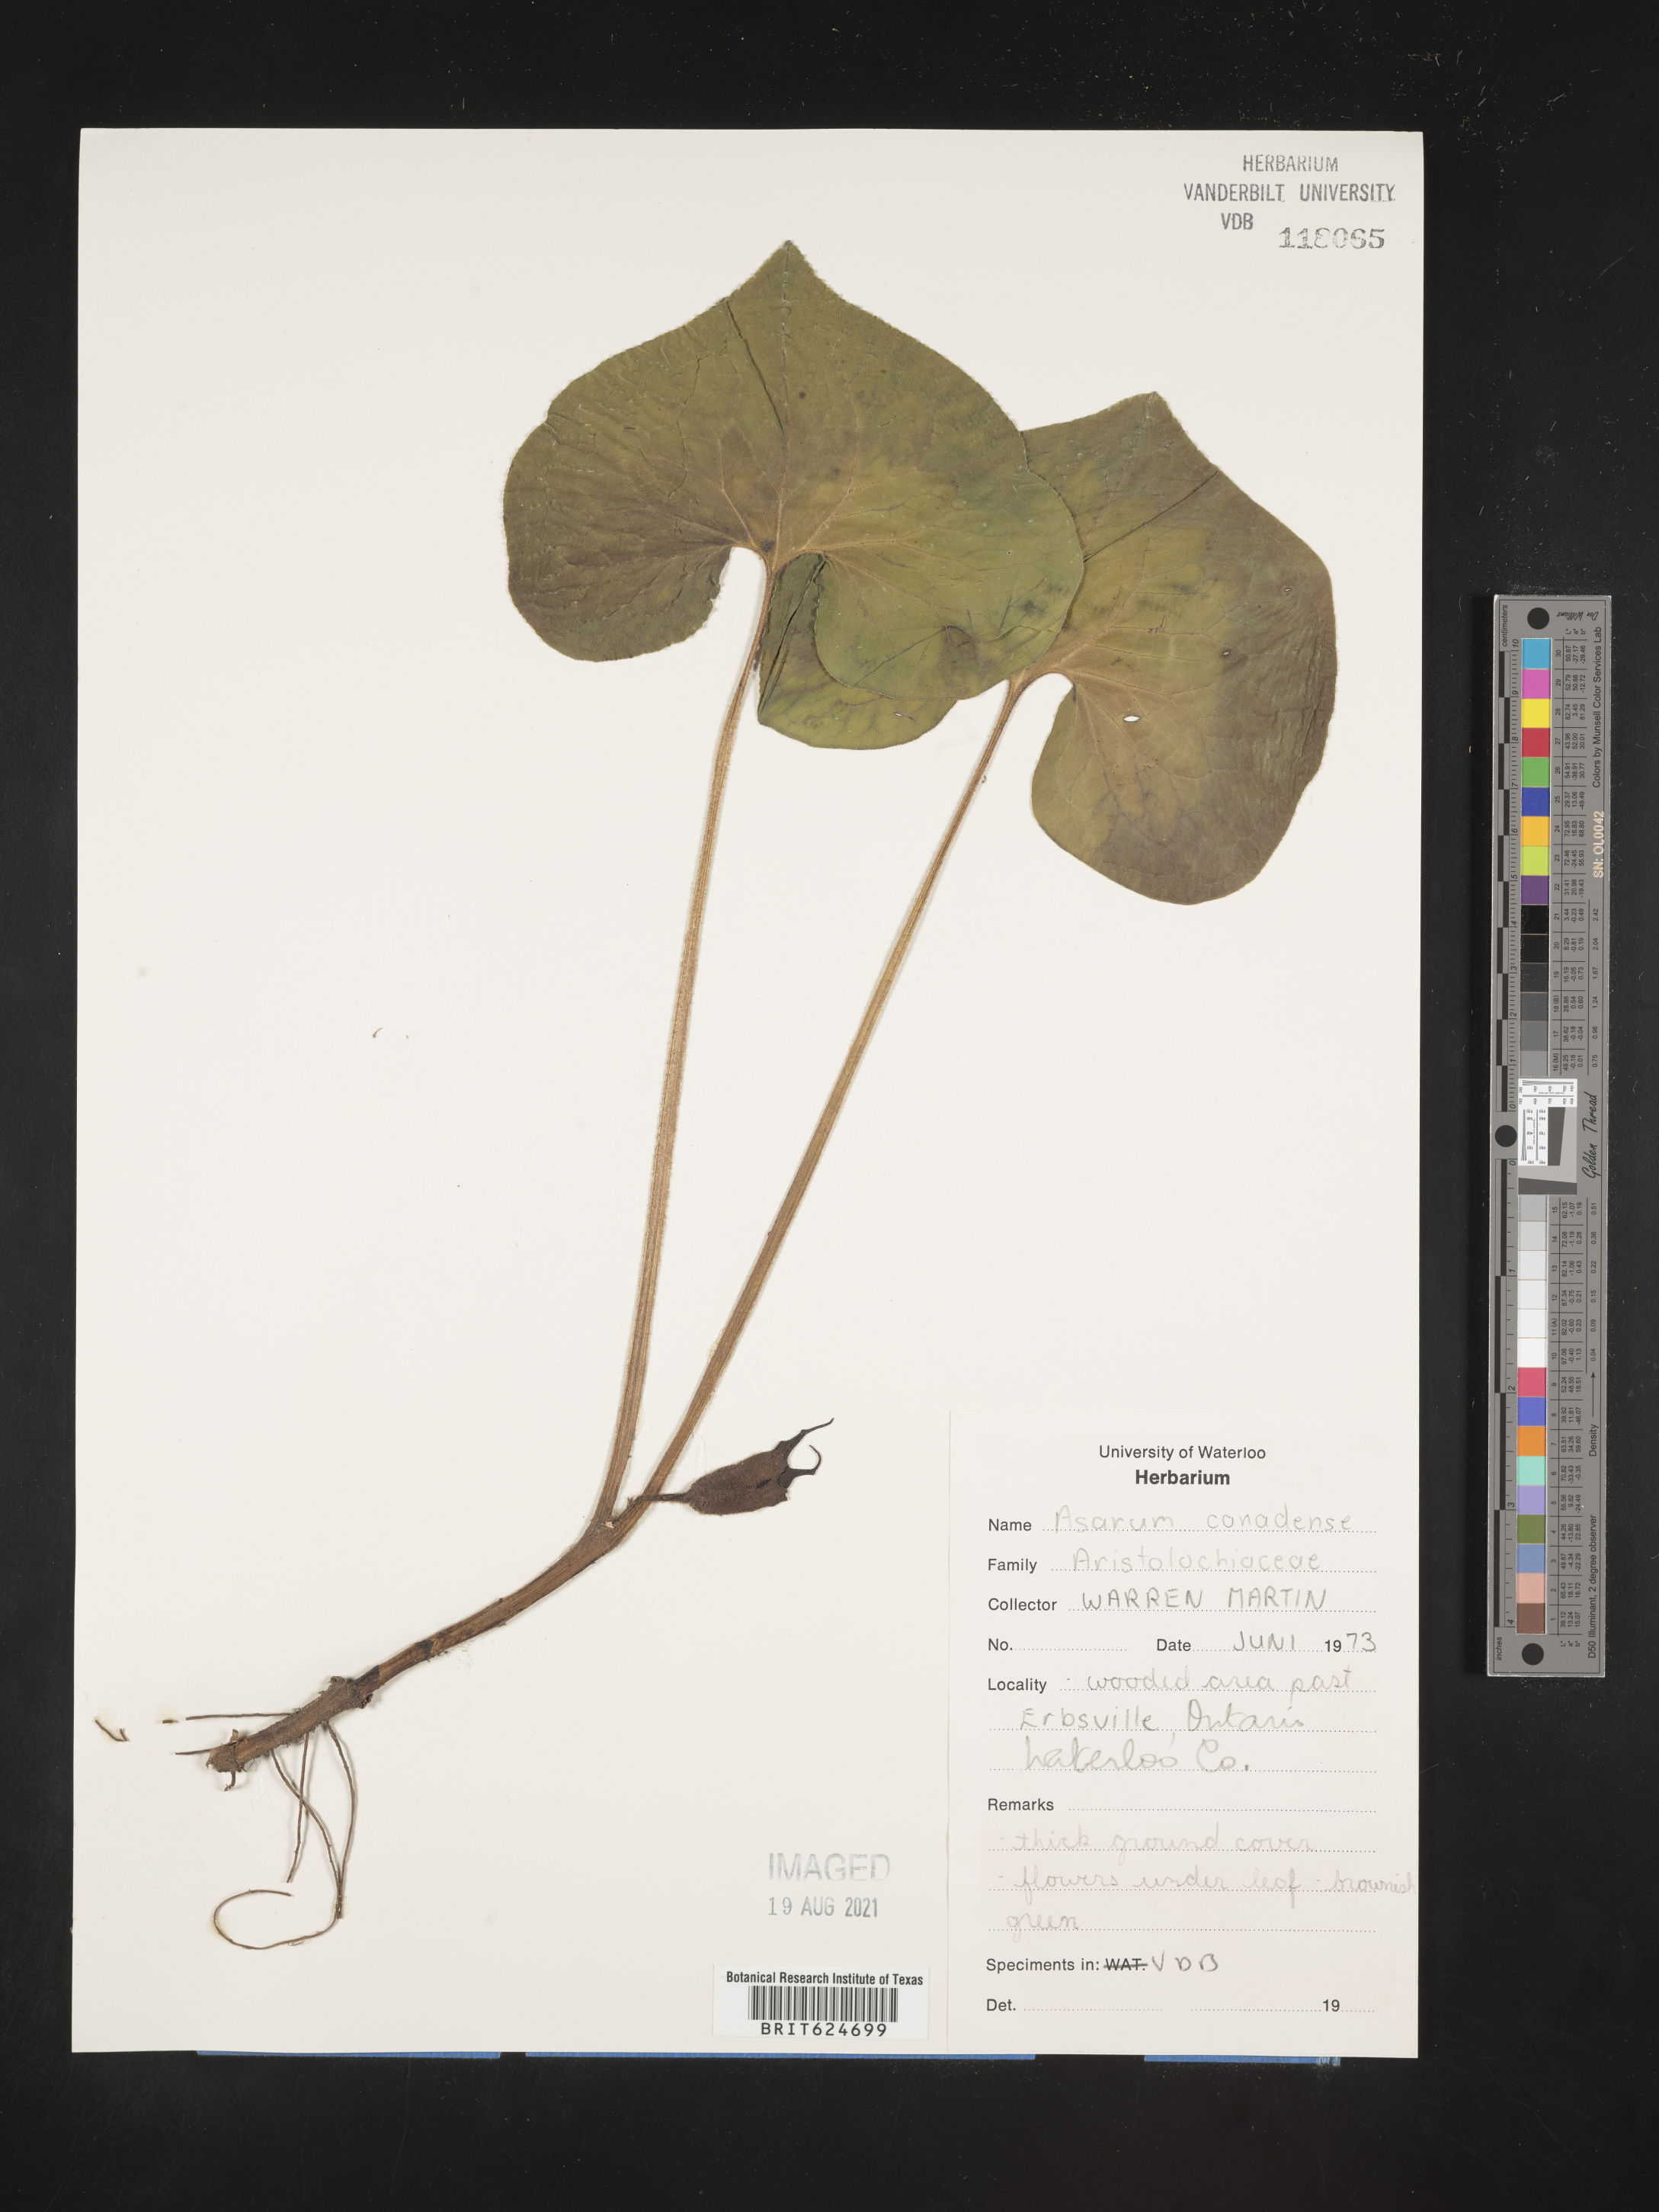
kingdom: Plantae
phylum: Tracheophyta
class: Magnoliopsida
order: Piperales
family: Aristolochiaceae
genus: Asarum
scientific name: Asarum canadense
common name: Wild ginger
